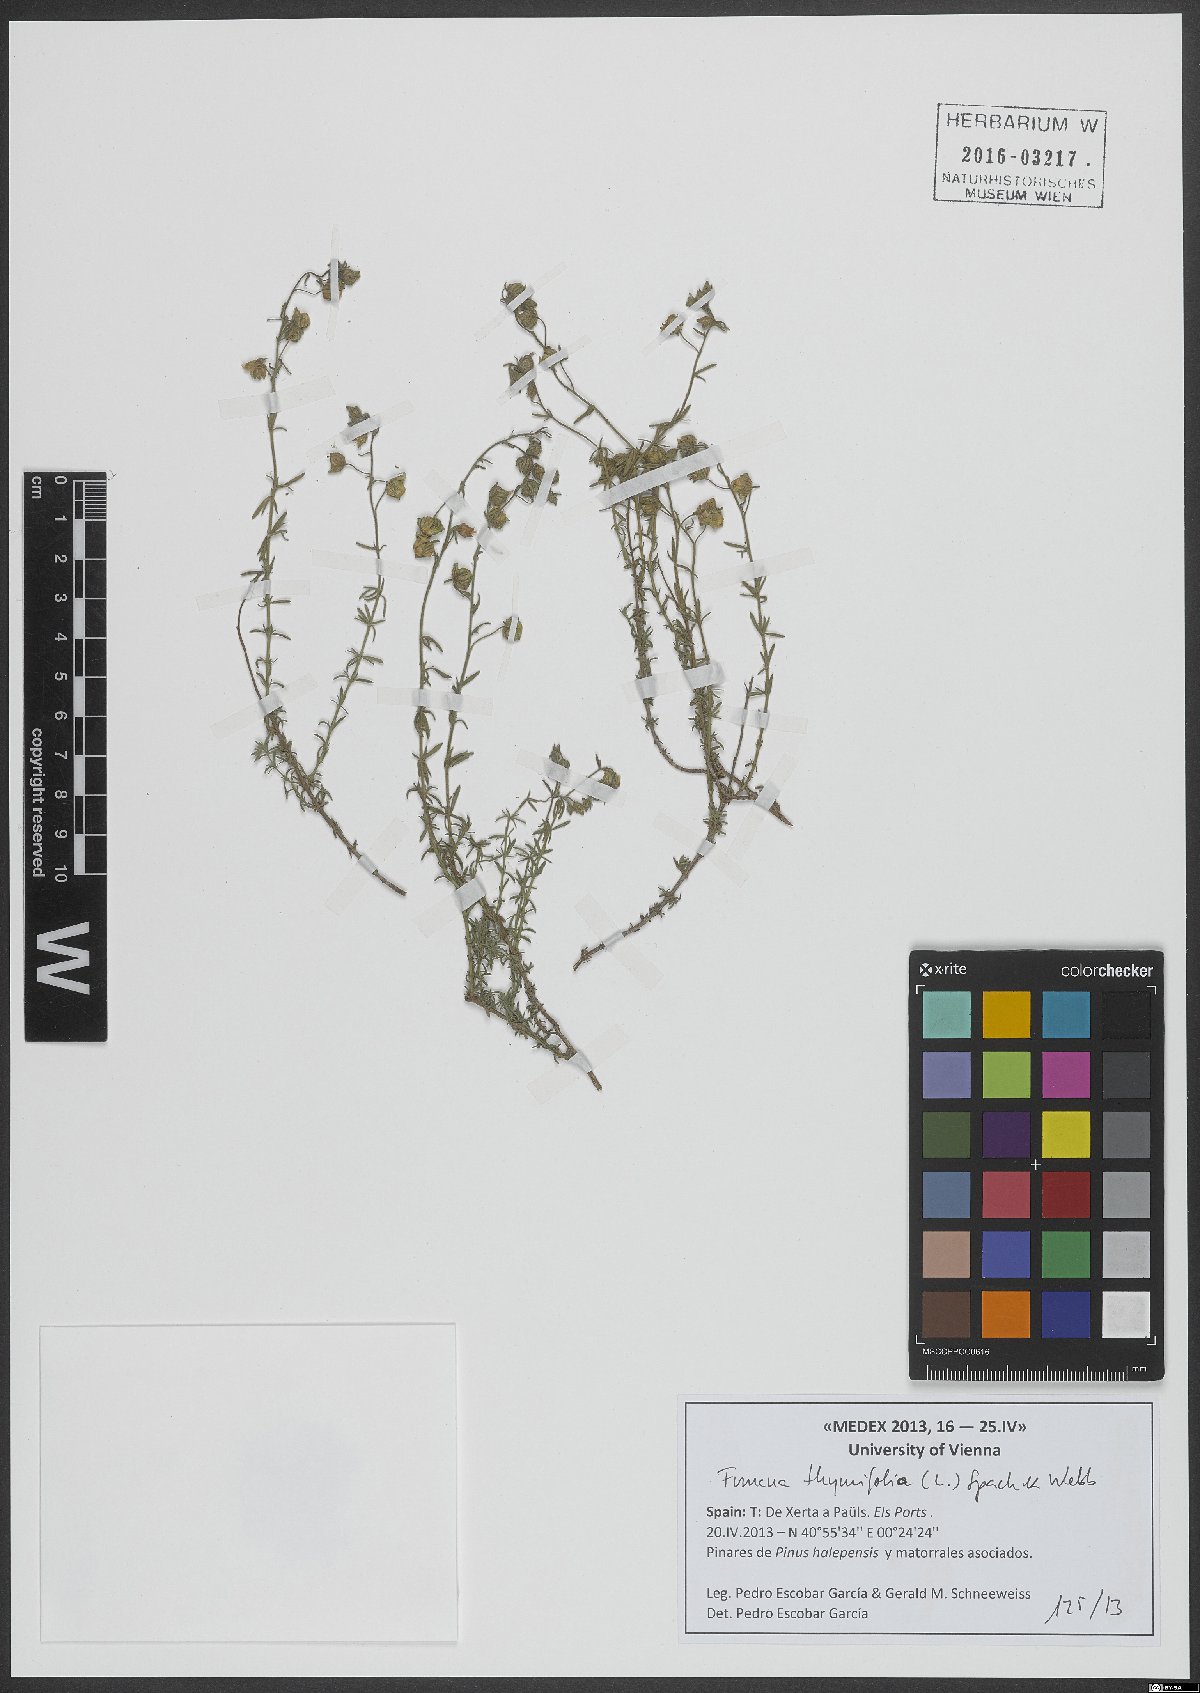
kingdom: Plantae
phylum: Tracheophyta
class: Magnoliopsida
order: Malvales
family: Cistaceae
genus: Fumana
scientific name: Fumana thymifolia
